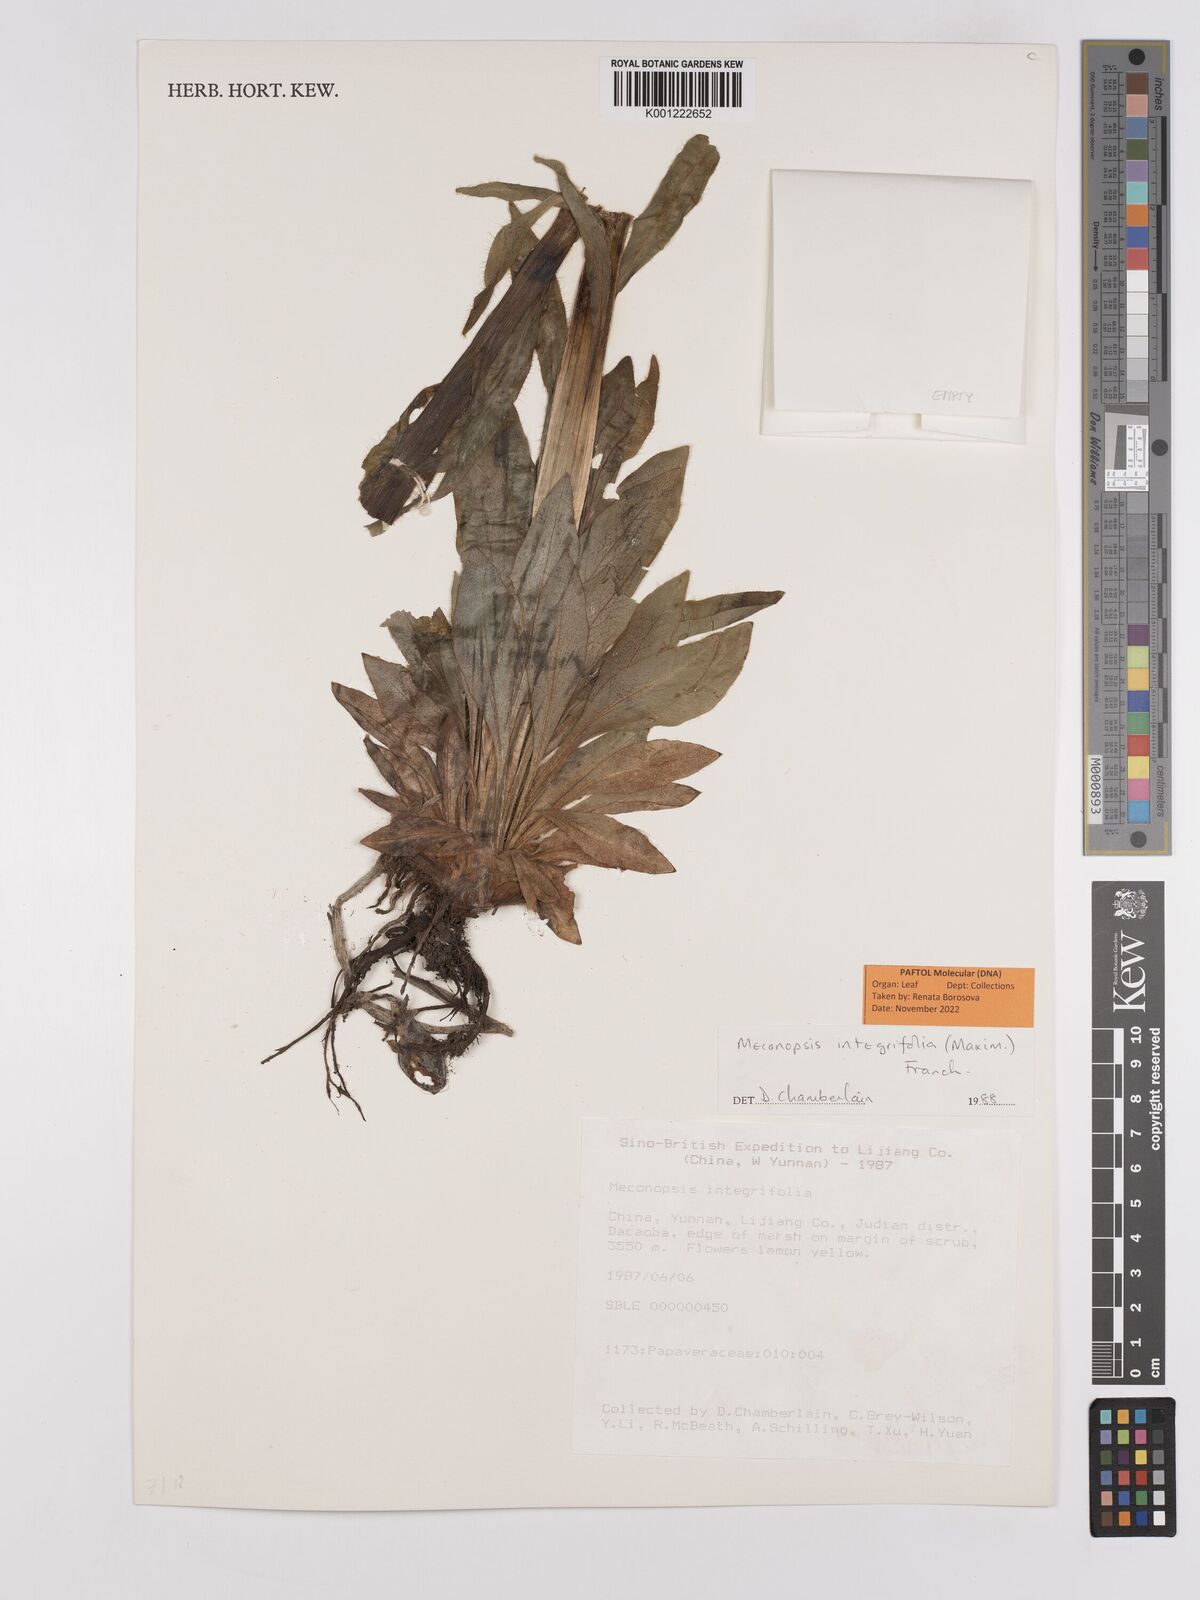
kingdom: Plantae
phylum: Tracheophyta
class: Magnoliopsida
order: Ranunculales
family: Papaveraceae
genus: Meconopsis
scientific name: Meconopsis integrifolia
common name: Yellow poppywort
